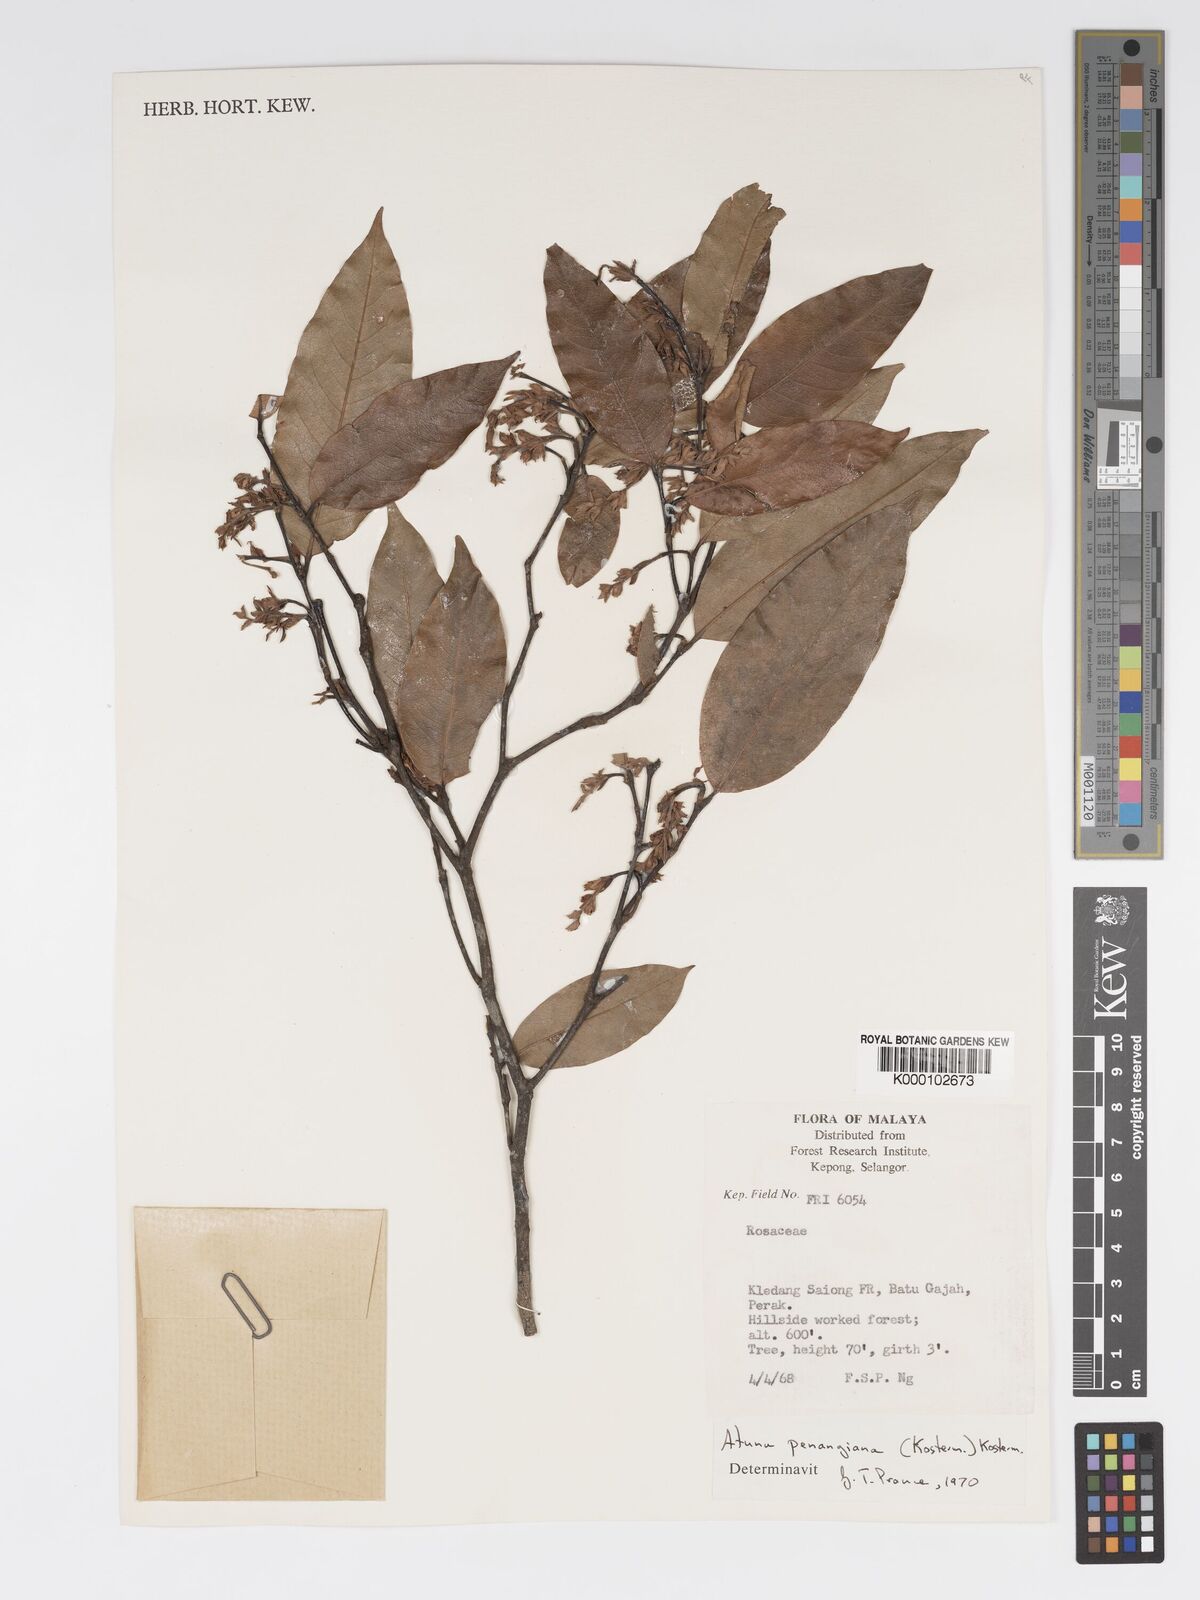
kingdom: Plantae
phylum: Tracheophyta
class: Magnoliopsida
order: Malpighiales
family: Chrysobalanaceae
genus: Atuna
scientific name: Atuna penangiana
